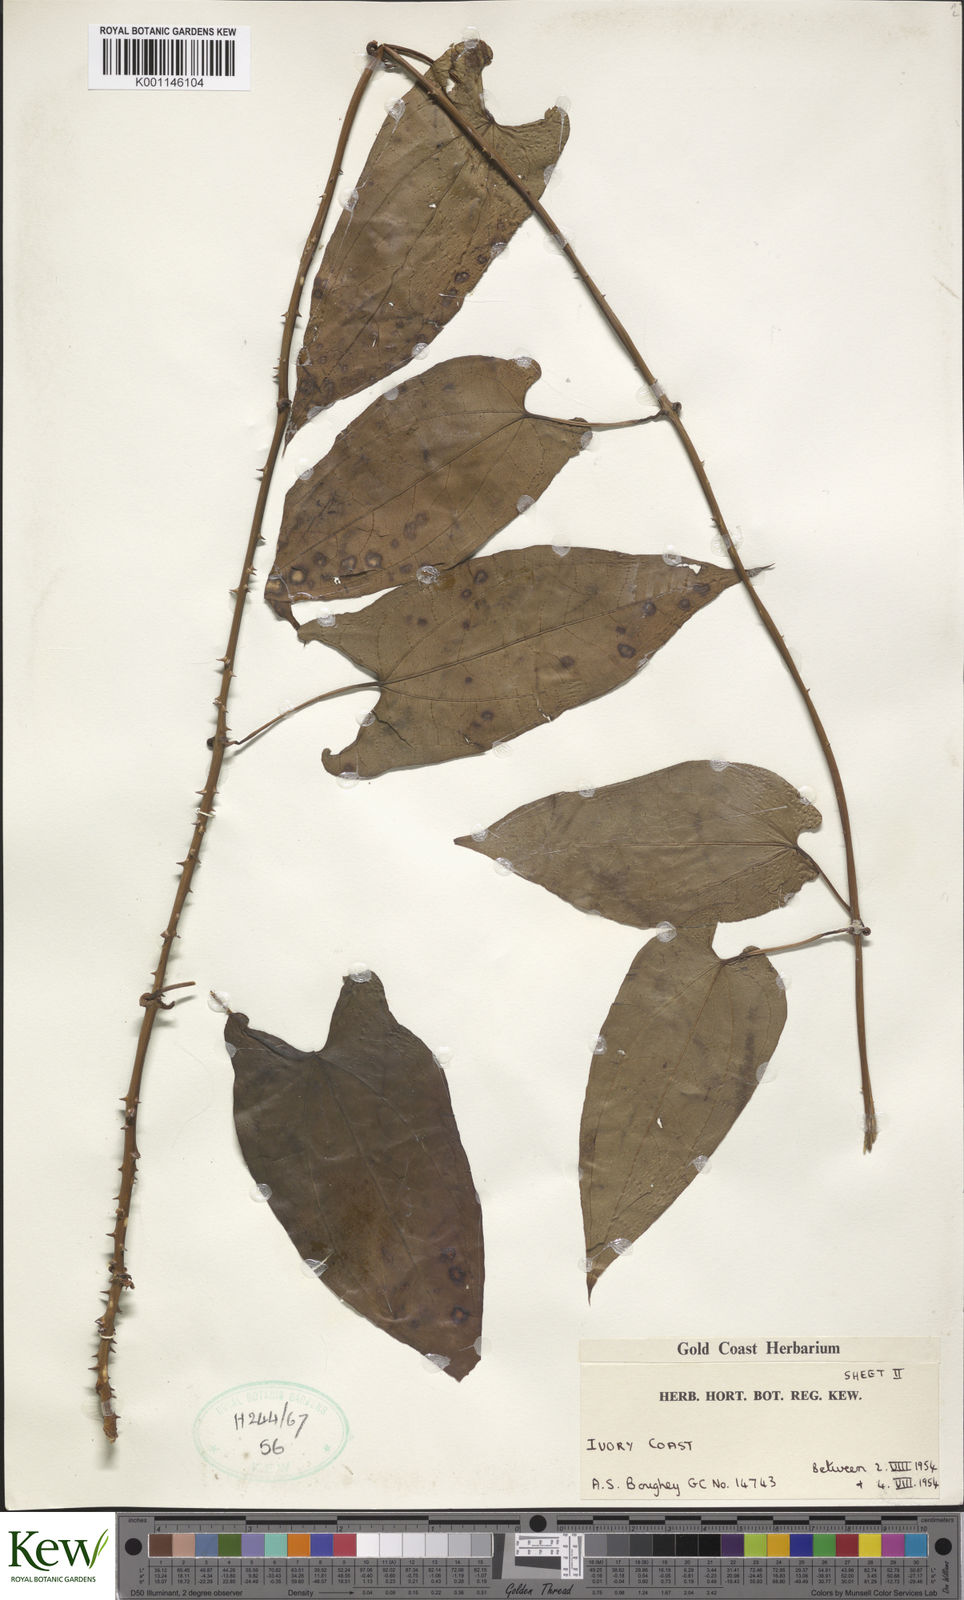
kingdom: Plantae
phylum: Tracheophyta
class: Liliopsida
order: Dioscoreales
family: Dioscoreaceae
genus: Dioscorea
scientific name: Dioscorea
